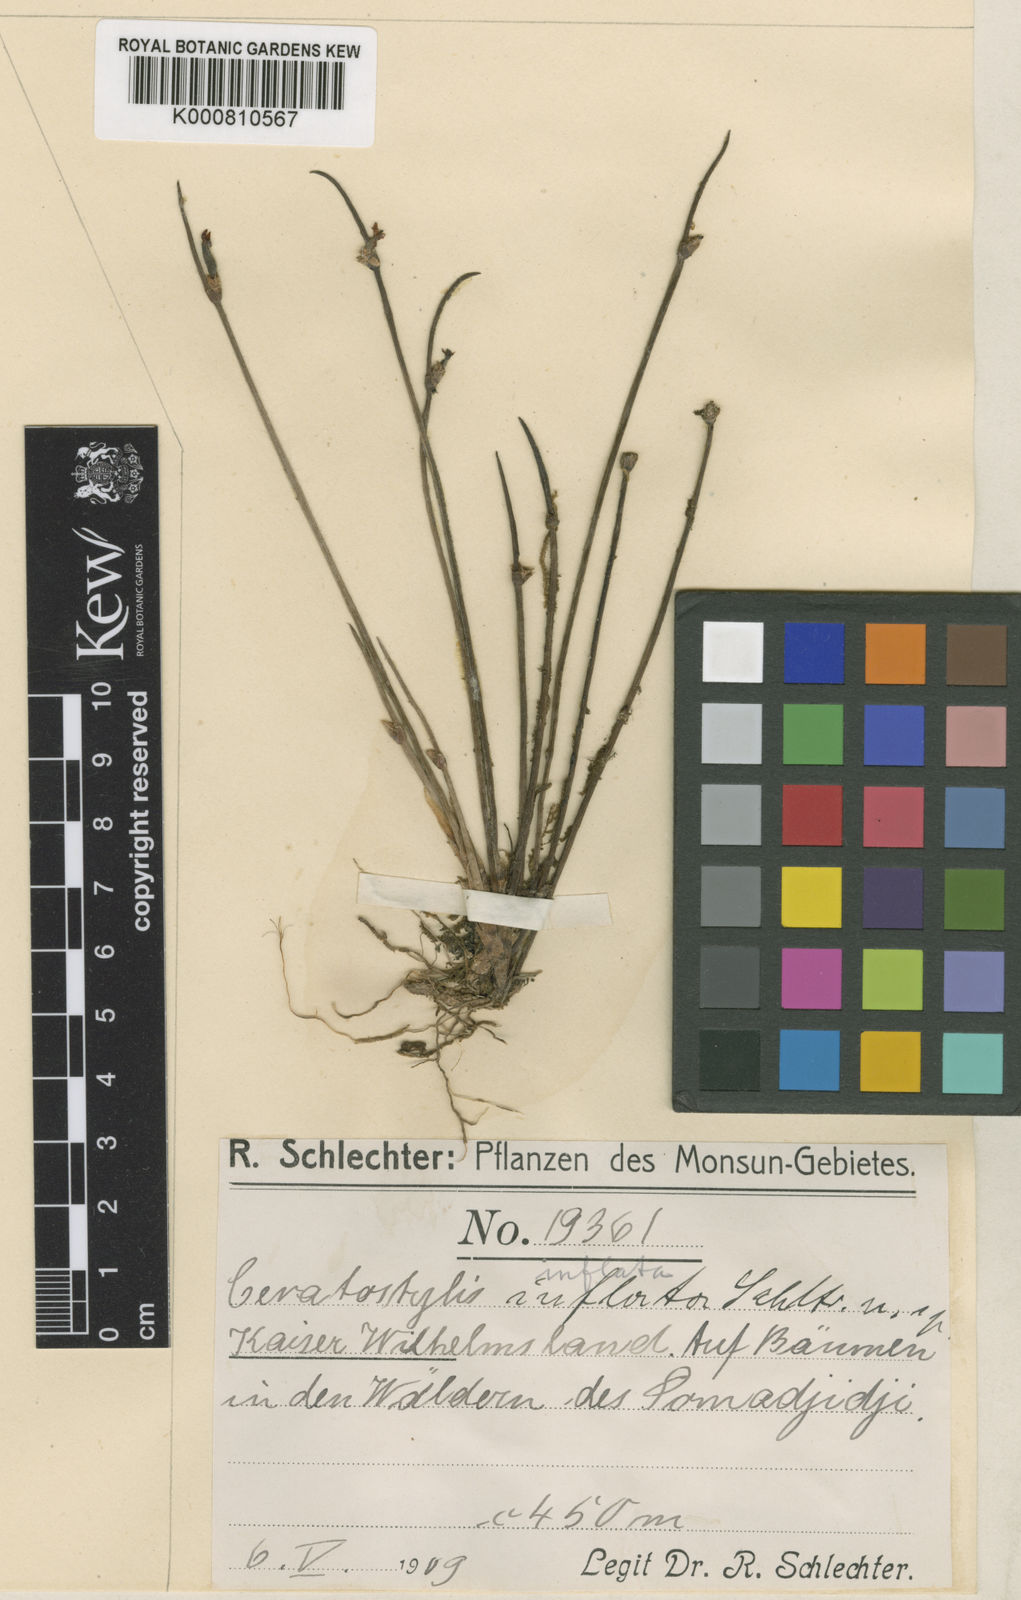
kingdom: Plantae
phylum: Tracheophyta
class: Liliopsida
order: Asparagales
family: Orchidaceae
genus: Ceratostylis
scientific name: Ceratostylis inflata
